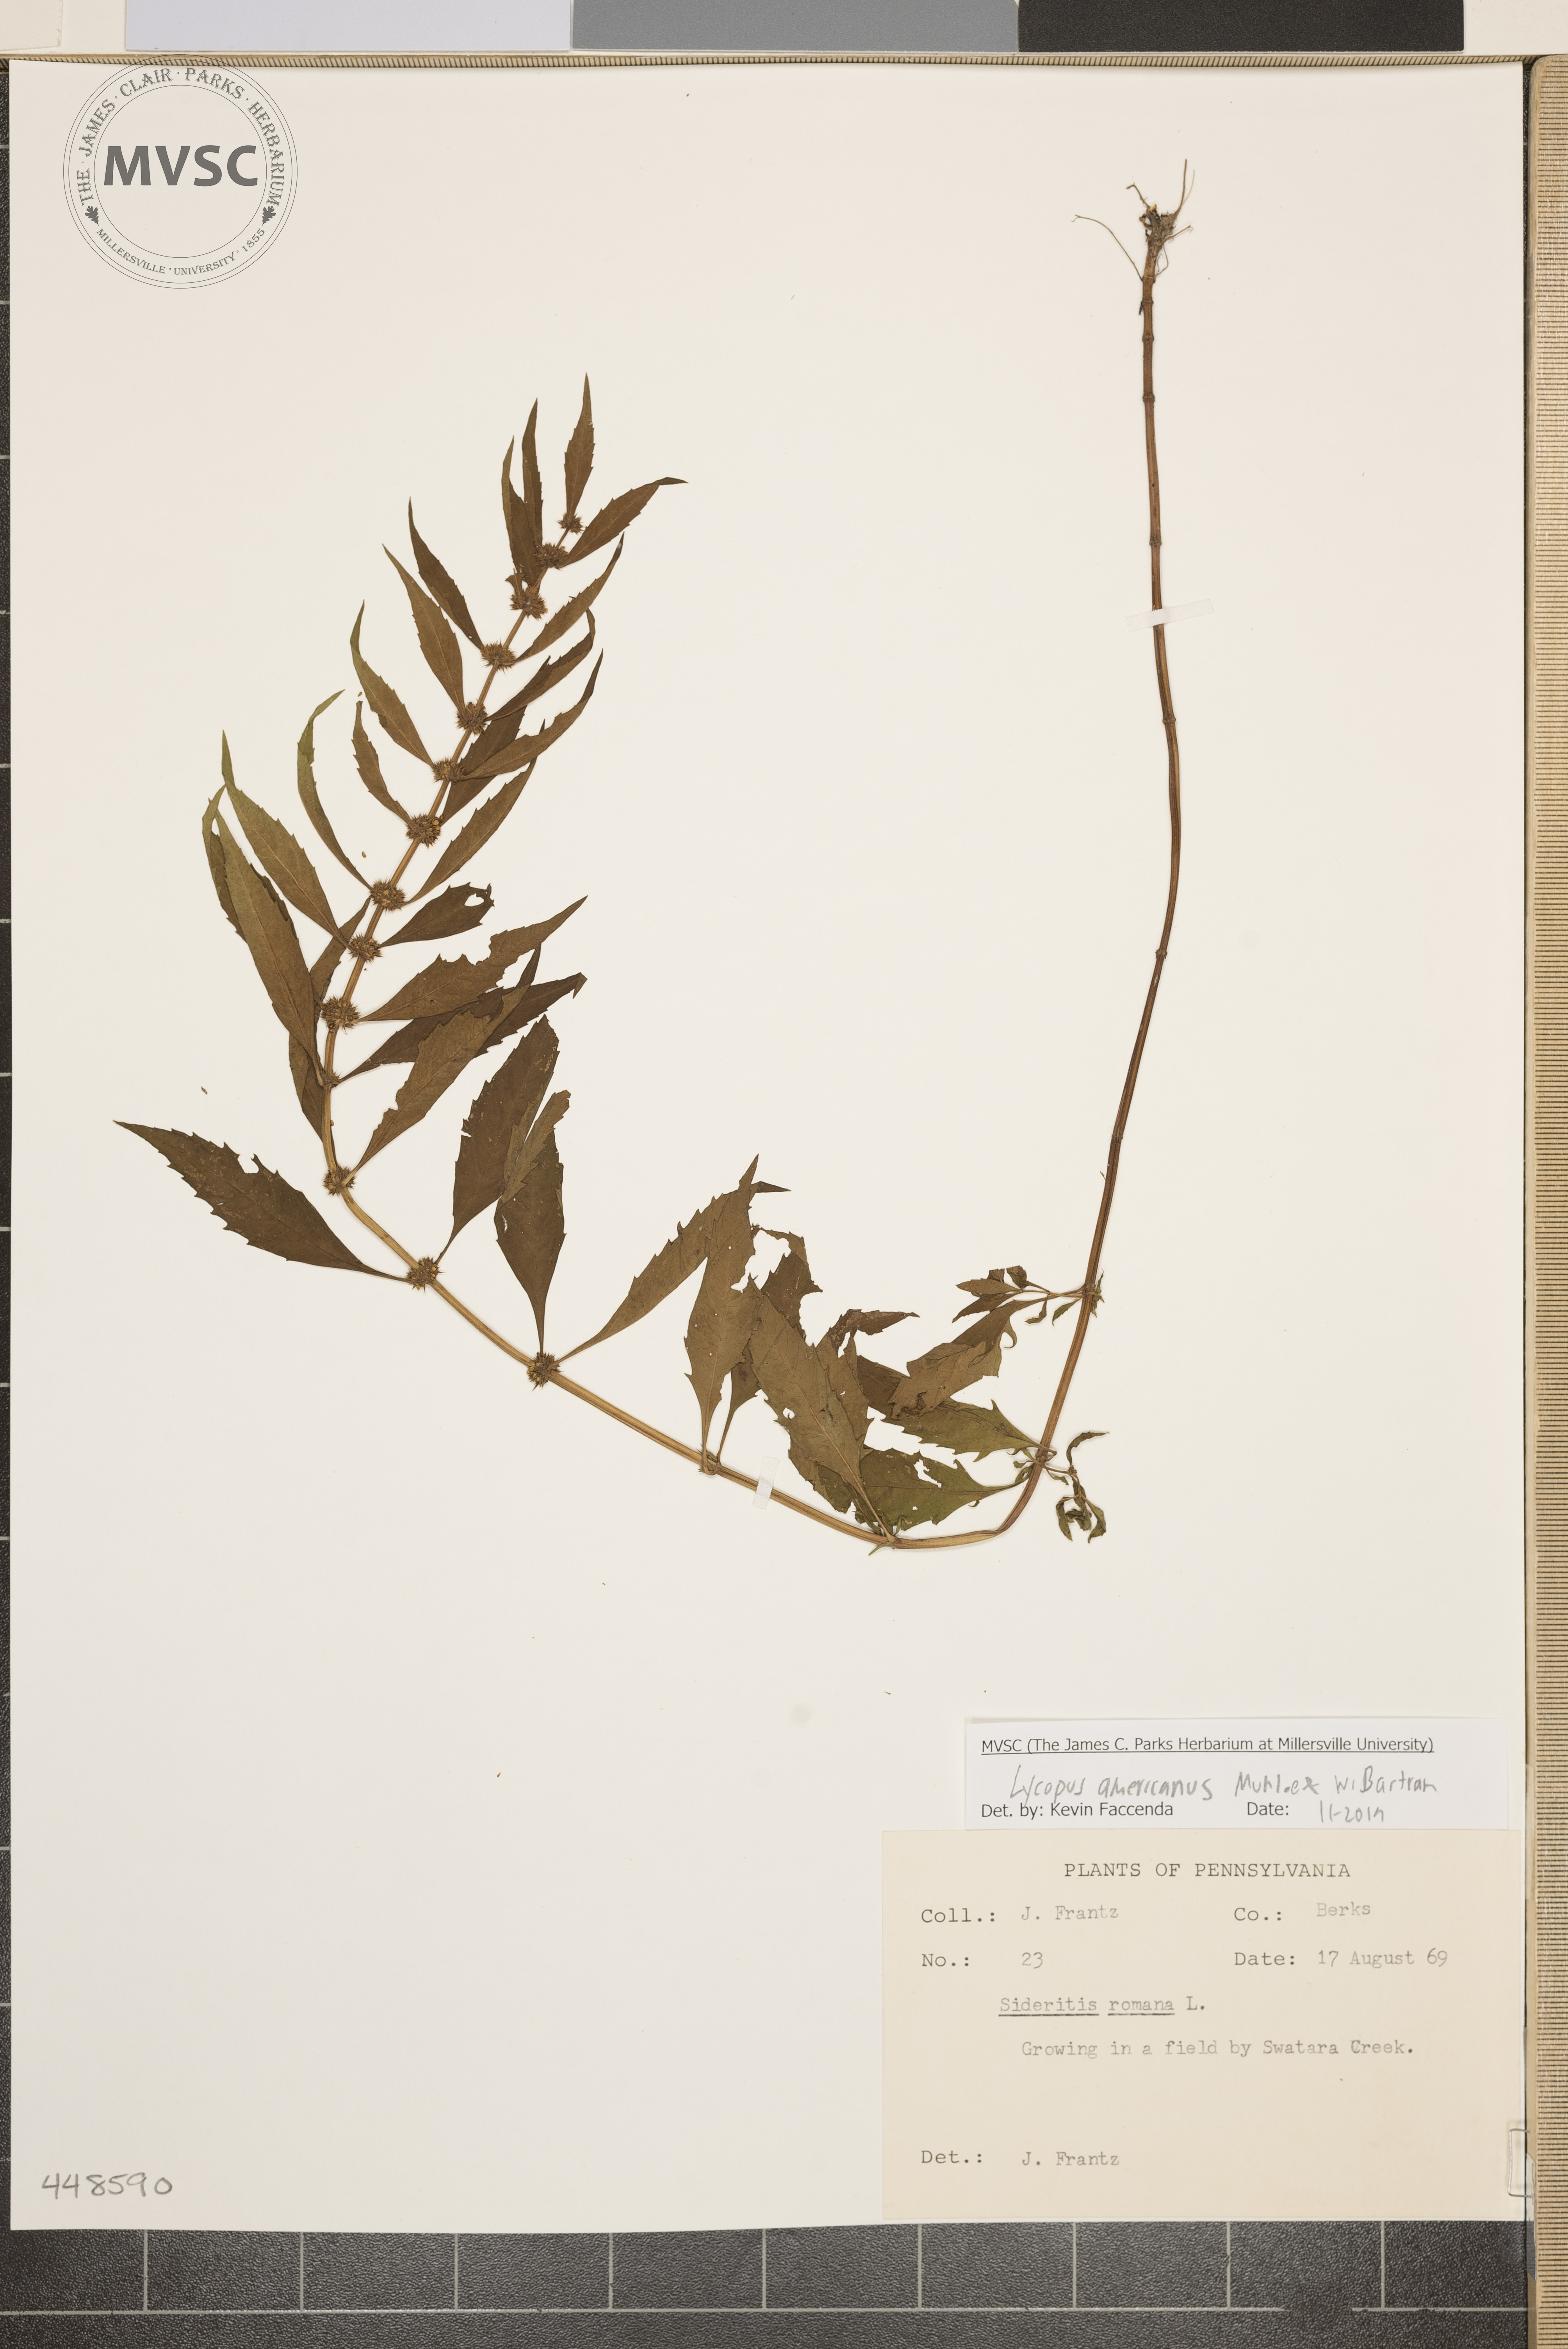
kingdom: Plantae
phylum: Tracheophyta
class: Magnoliopsida
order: Lamiales
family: Lamiaceae
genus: Lycopus
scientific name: Lycopus americanus
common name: American bugleweed
